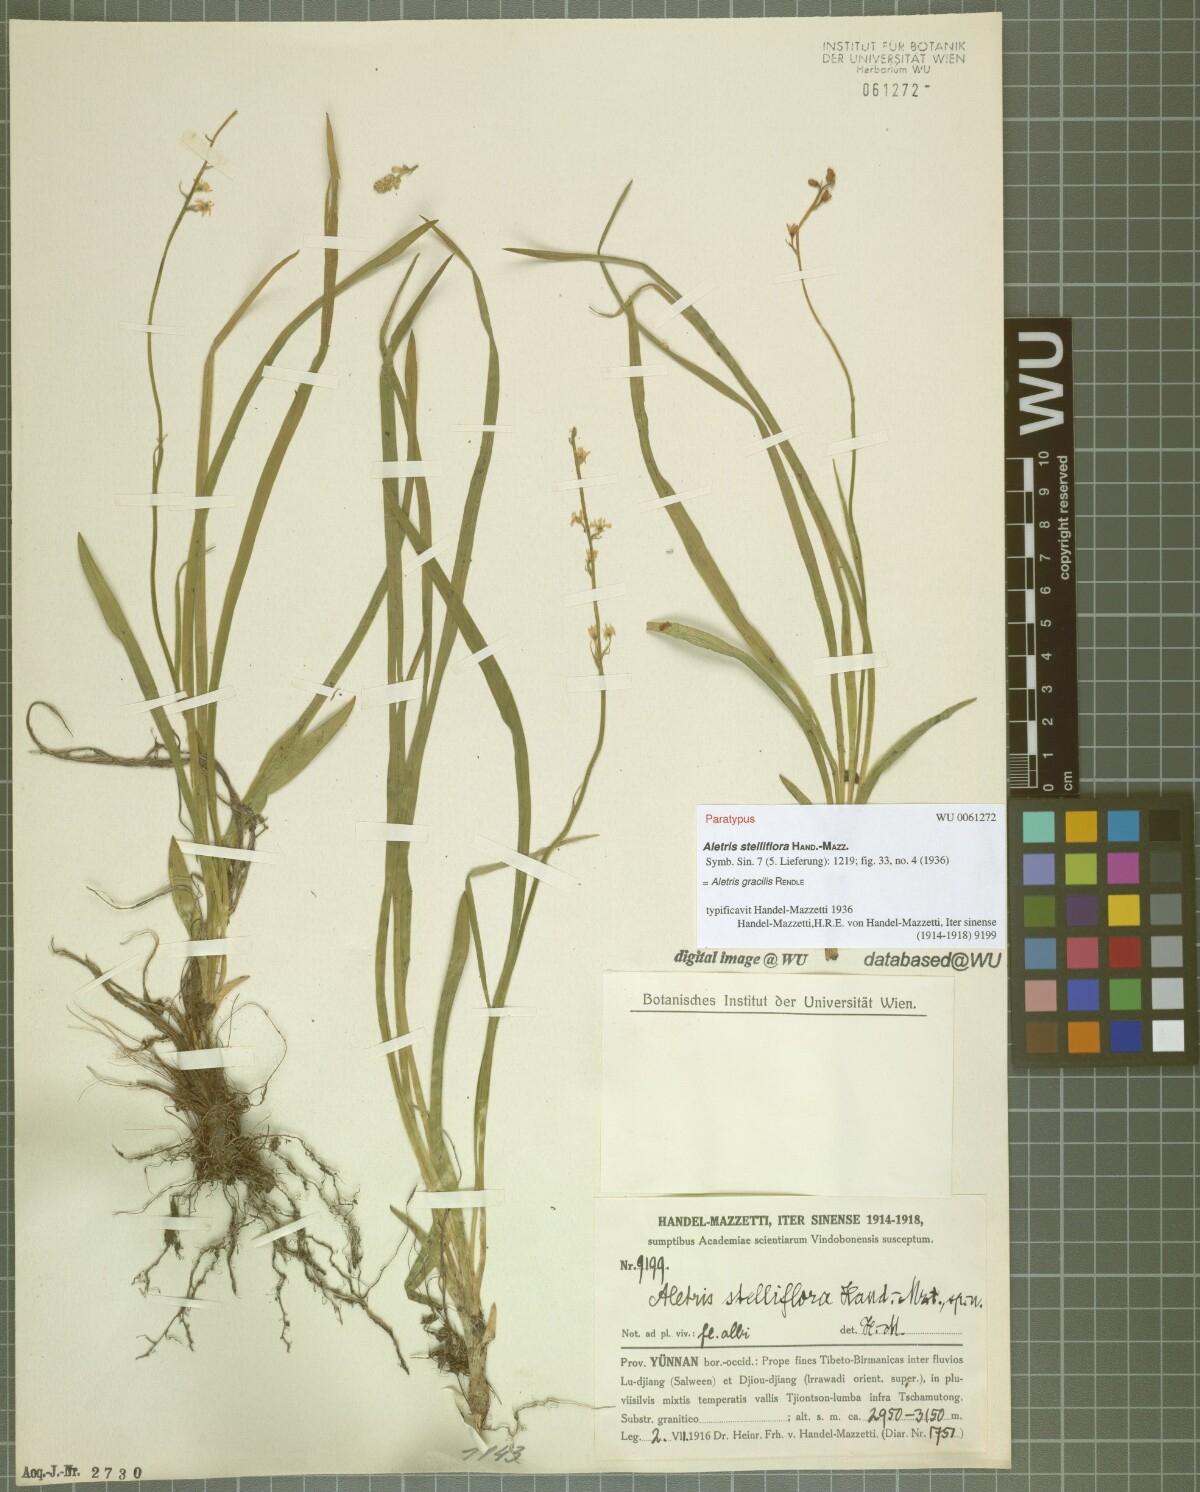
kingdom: Plantae
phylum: Tracheophyta
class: Liliopsida
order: Dioscoreales
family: Nartheciaceae
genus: Aletris
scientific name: Aletris gracilis
